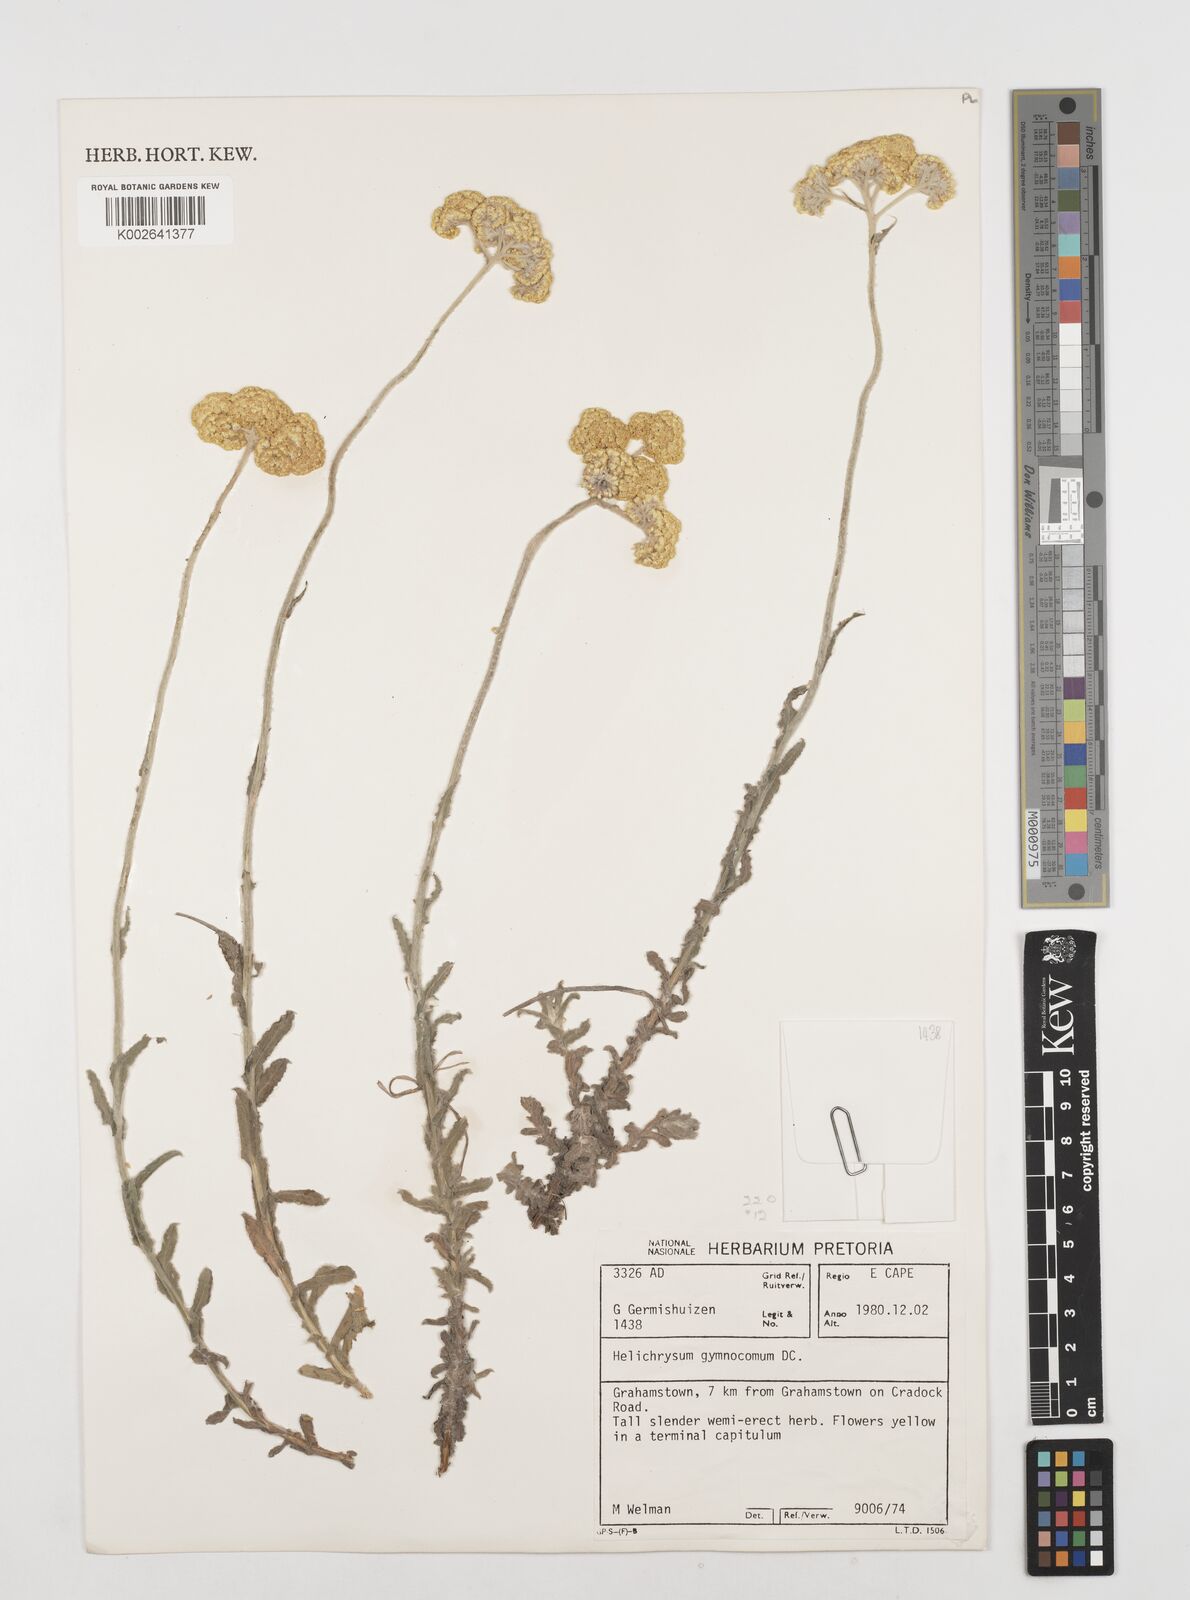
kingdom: Plantae
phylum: Tracheophyta
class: Magnoliopsida
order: Asterales
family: Asteraceae
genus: Helichrysum
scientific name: Helichrysum gymnocomum
